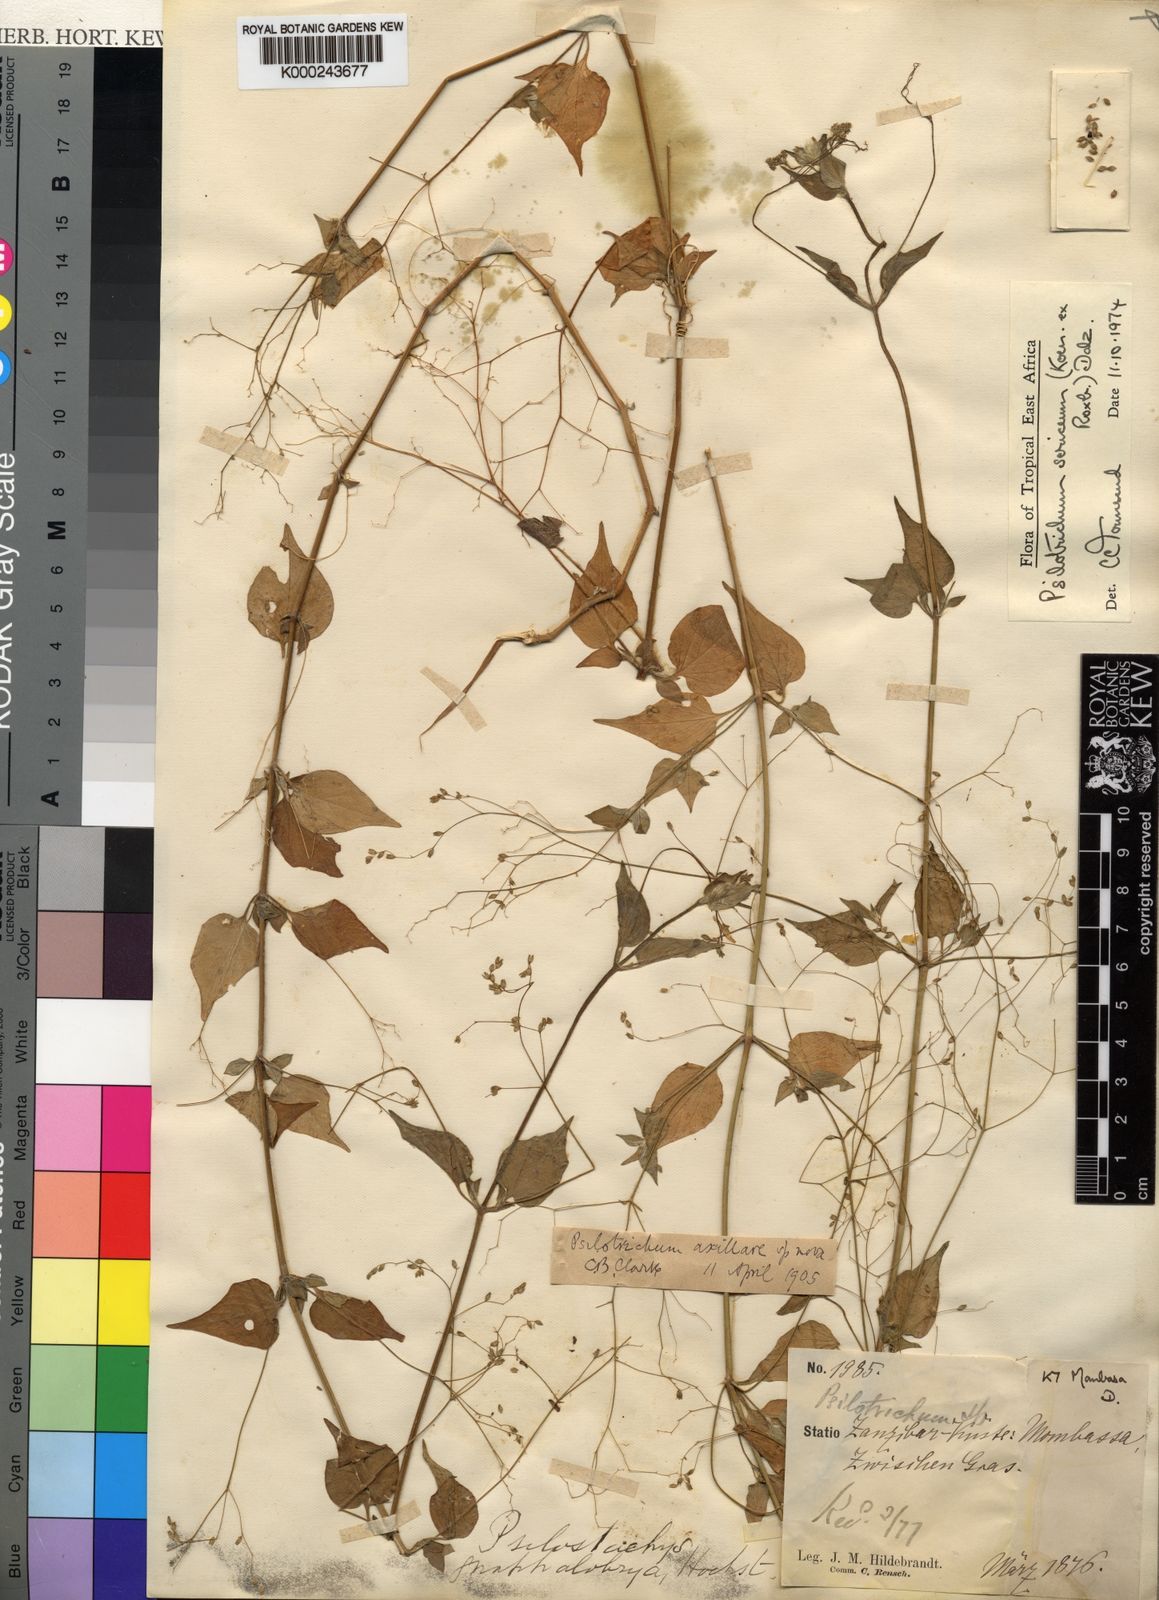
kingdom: Plantae
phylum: Tracheophyta
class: Magnoliopsida
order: Caryophyllales
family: Amaranthaceae
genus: Psilotrichum
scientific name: Psilotrichum sericeum
